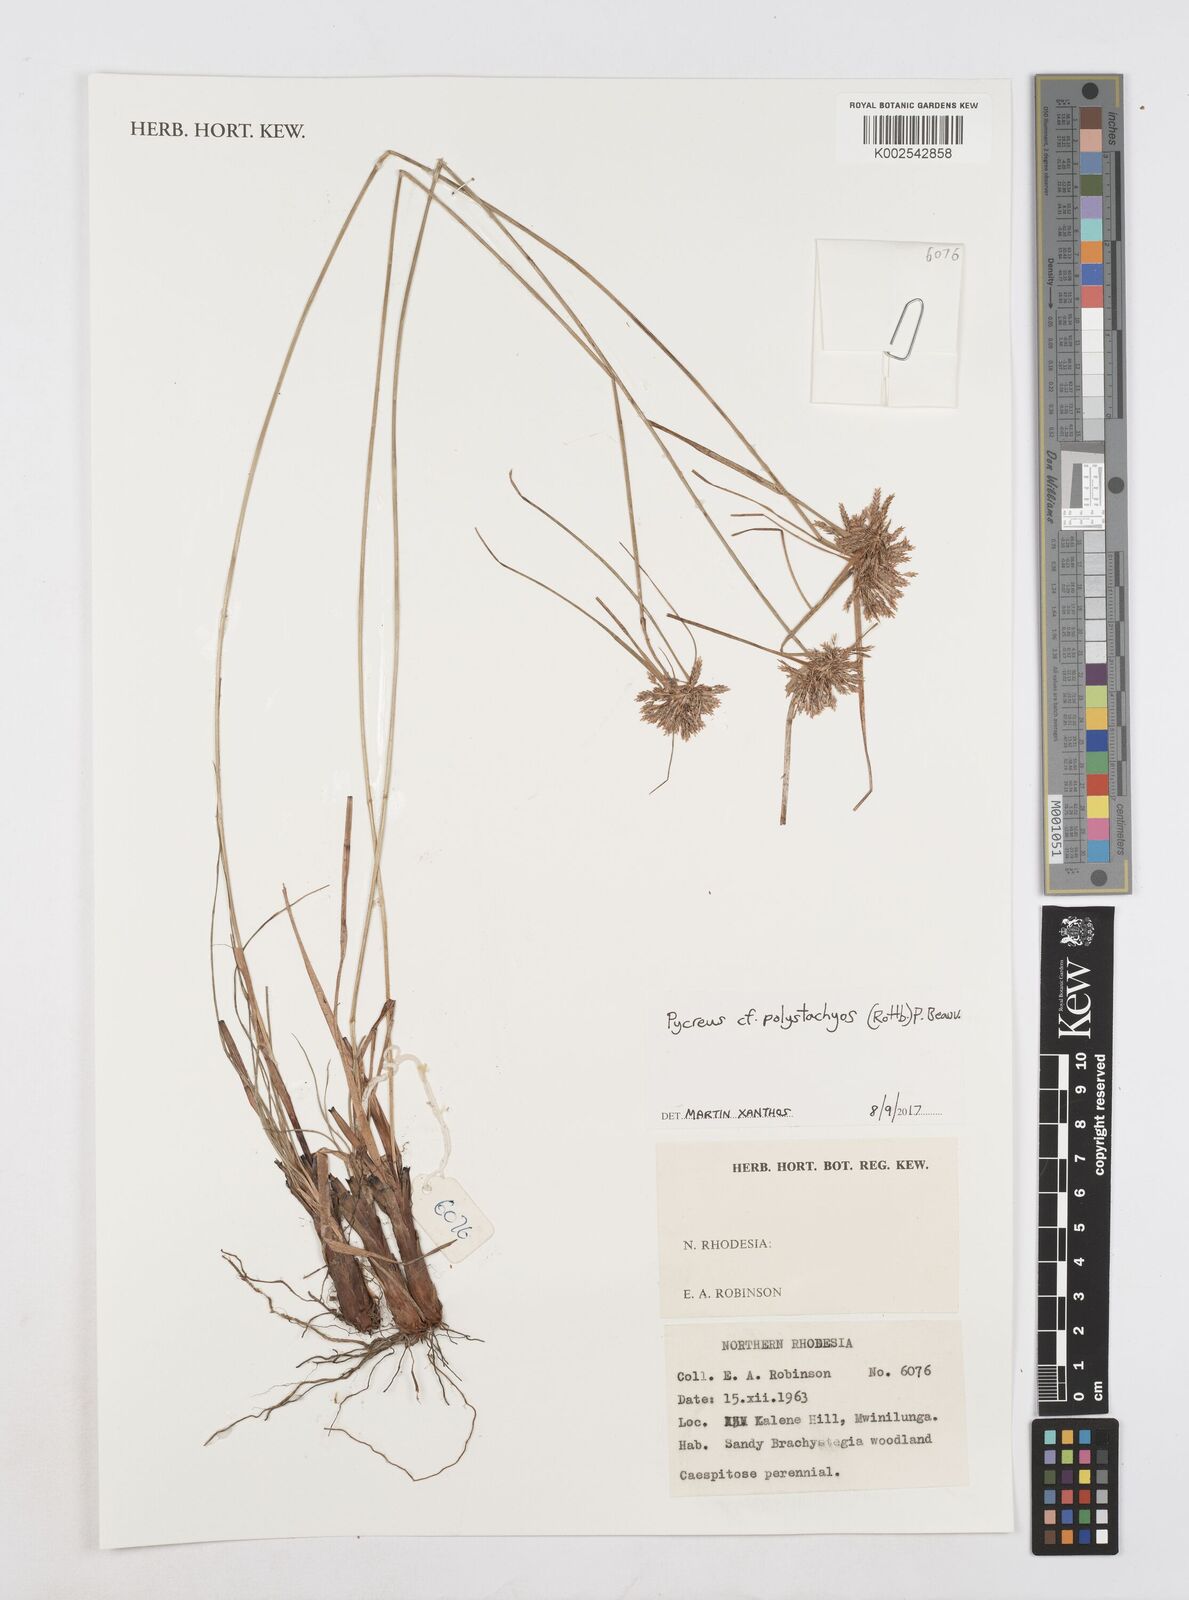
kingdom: Plantae
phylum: Tracheophyta
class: Liliopsida
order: Poales
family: Cyperaceae
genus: Cyperus
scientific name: Cyperus polystachyos
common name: Bunchy flat sedge
